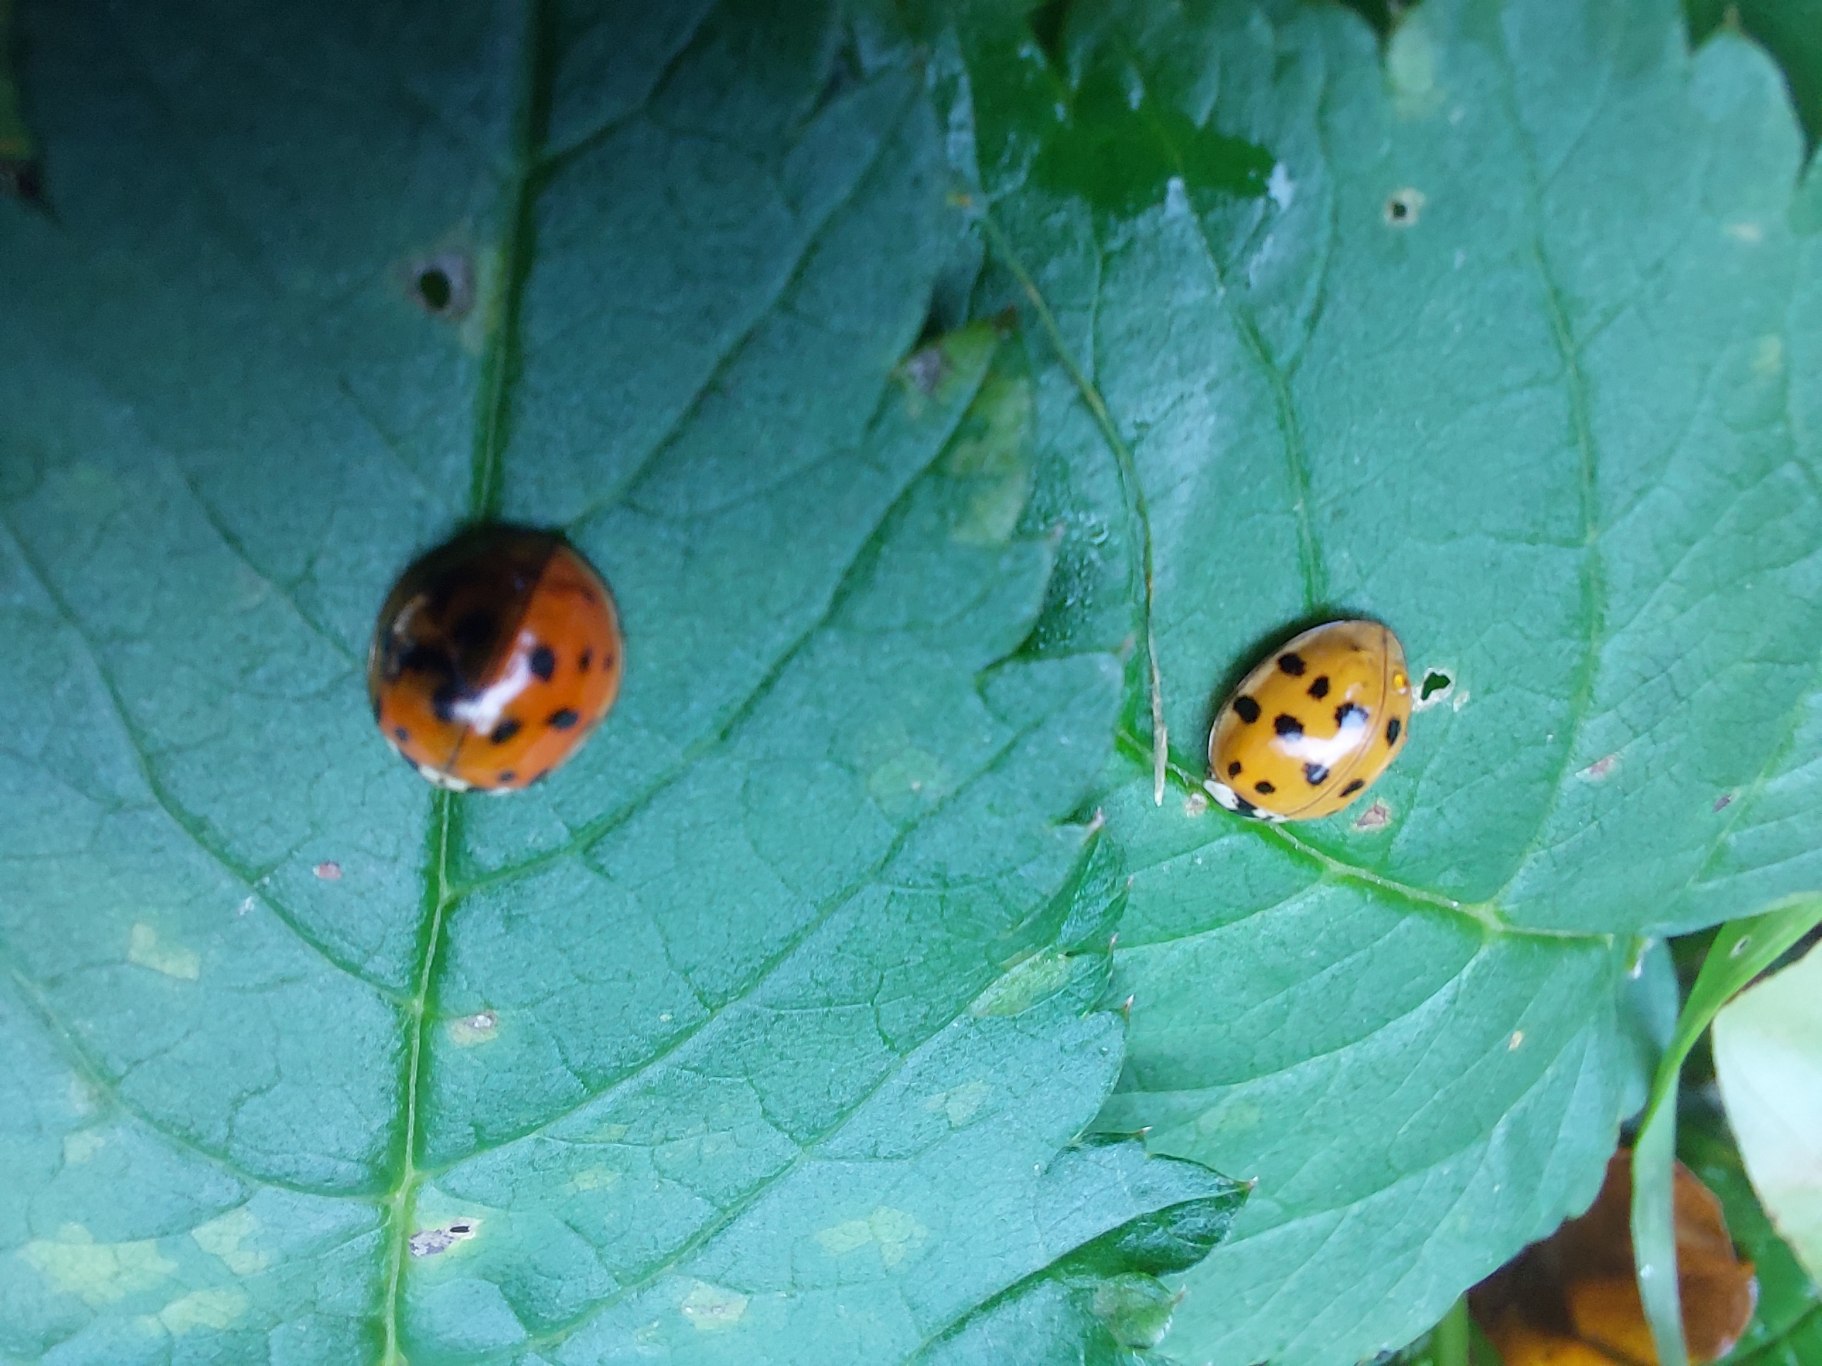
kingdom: Animalia
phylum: Arthropoda
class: Insecta
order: Coleoptera
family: Coccinellidae
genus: Harmonia
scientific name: Harmonia axyridis
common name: Harlekinmariehøne
